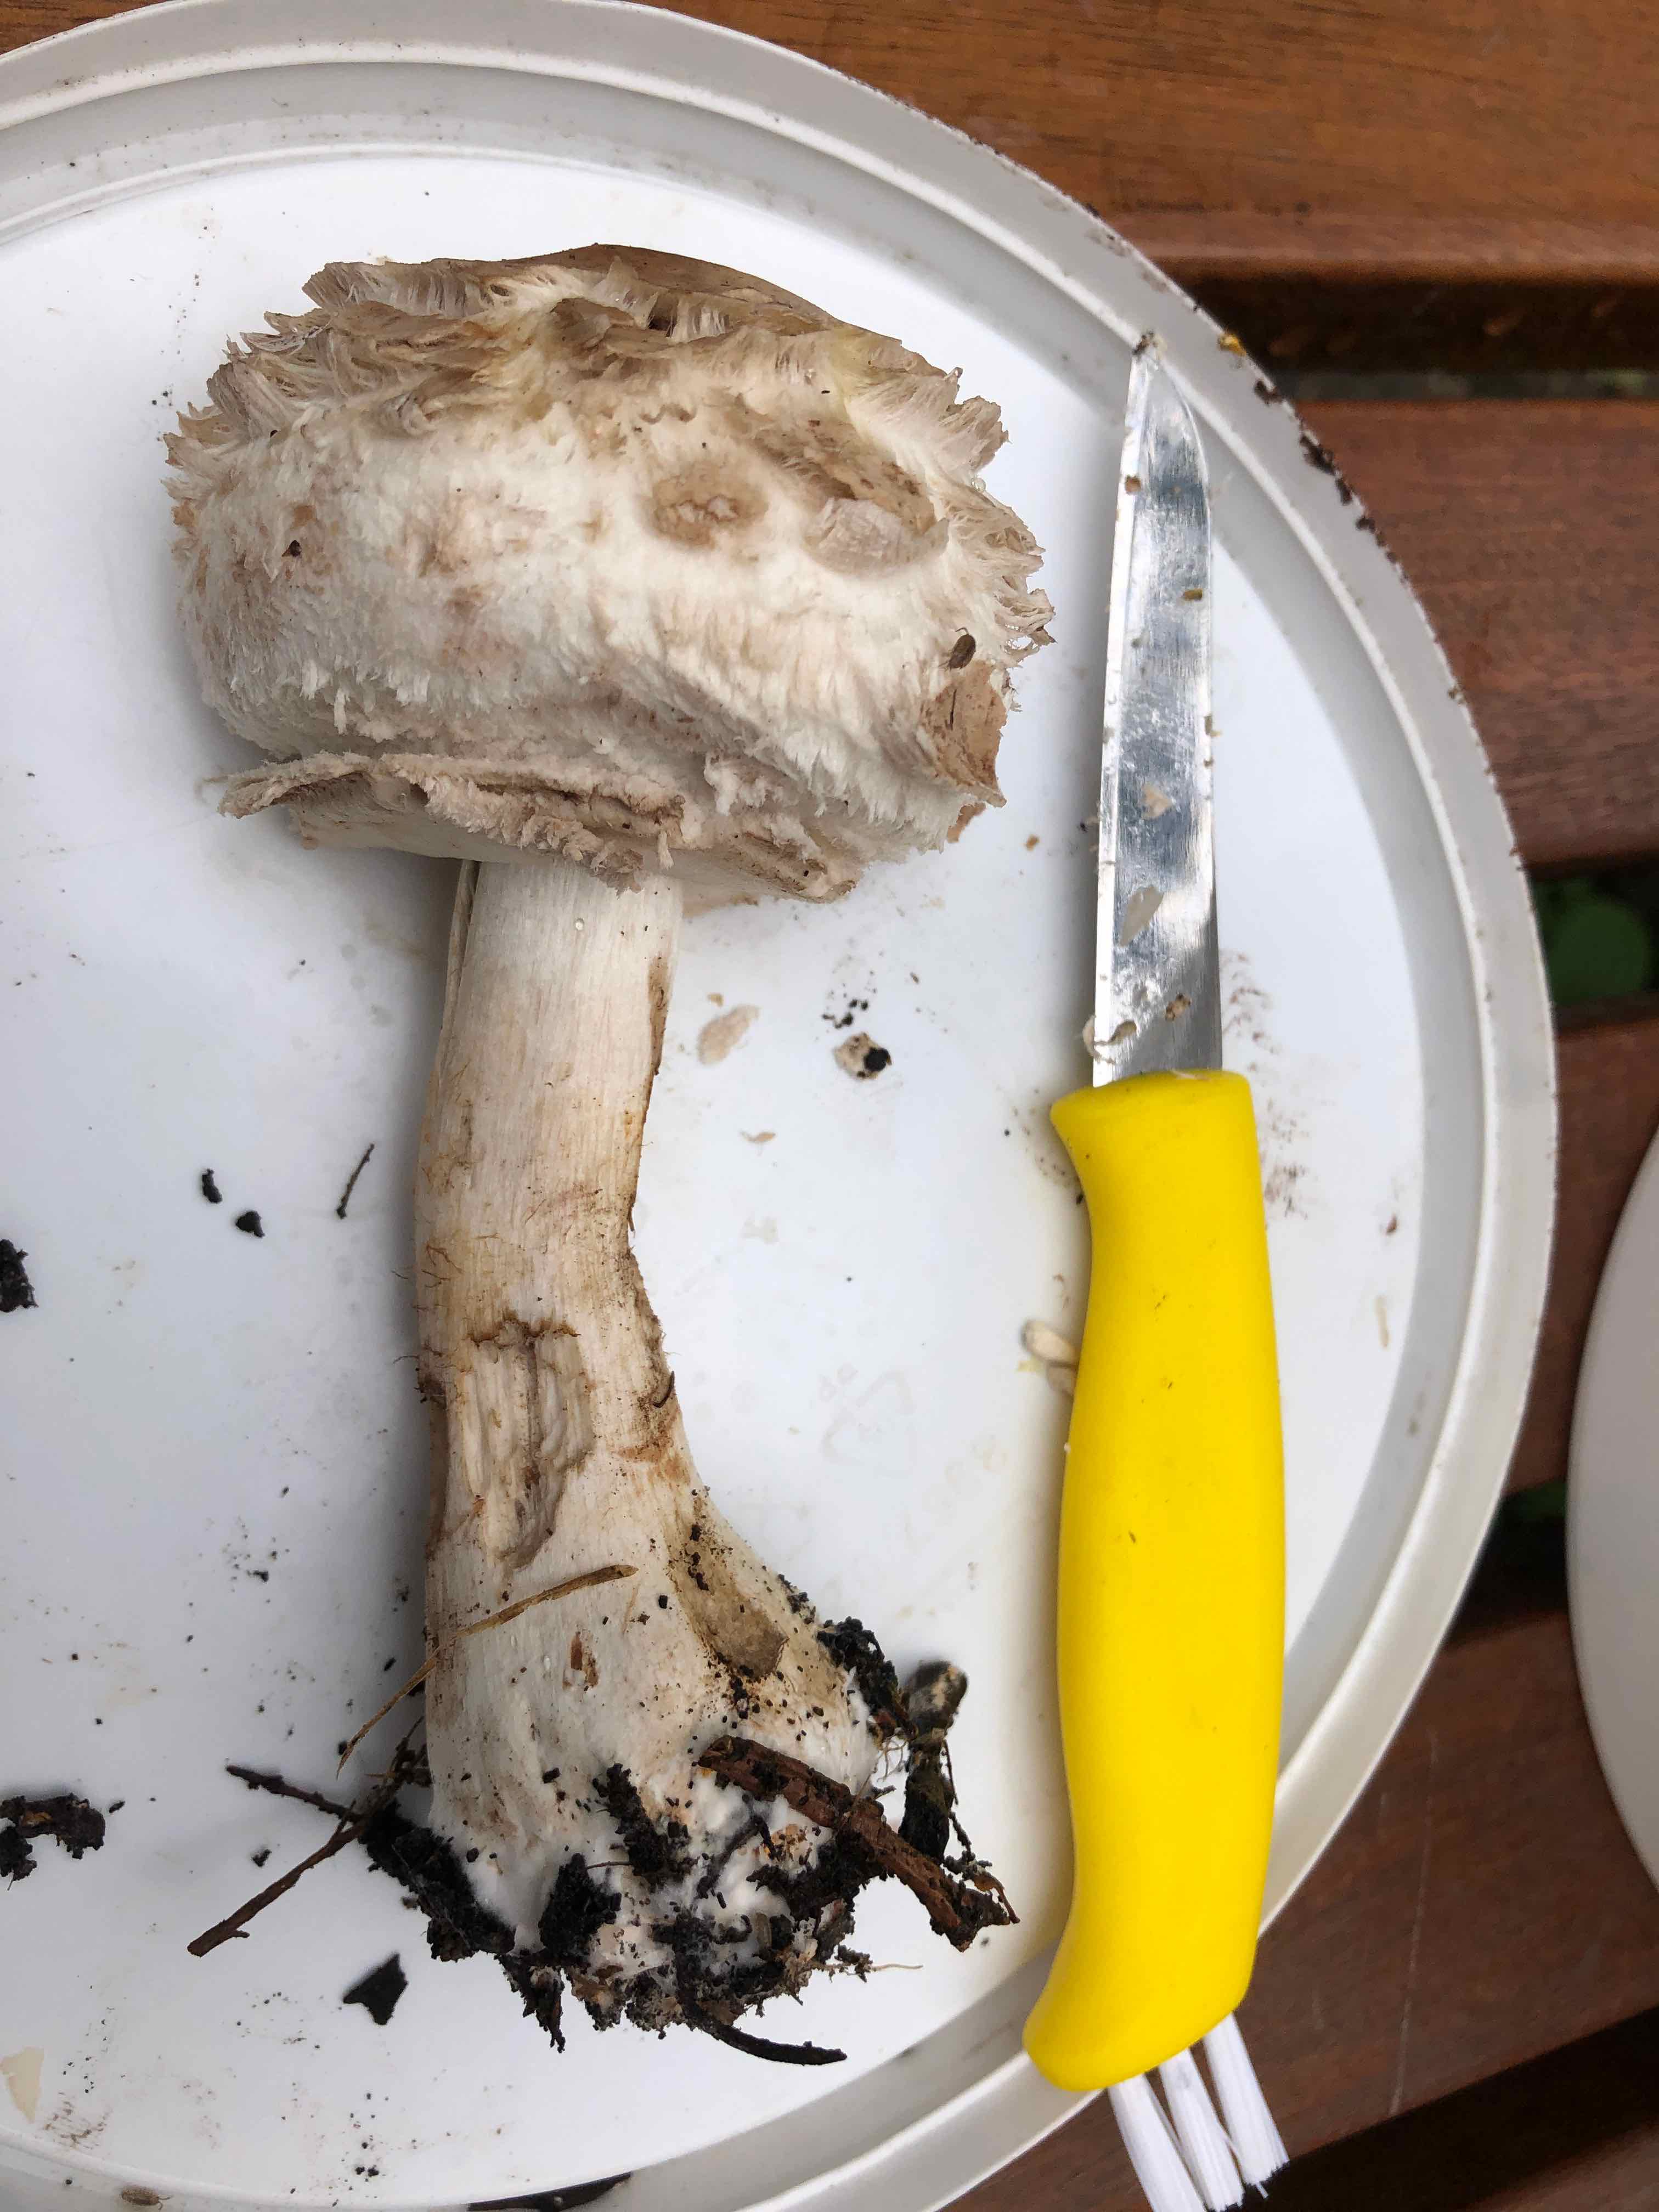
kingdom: Fungi
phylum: Basidiomycota
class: Agaricomycetes
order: Agaricales
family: Agaricaceae
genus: Chlorophyllum
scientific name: Chlorophyllum
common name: rabarberhat
